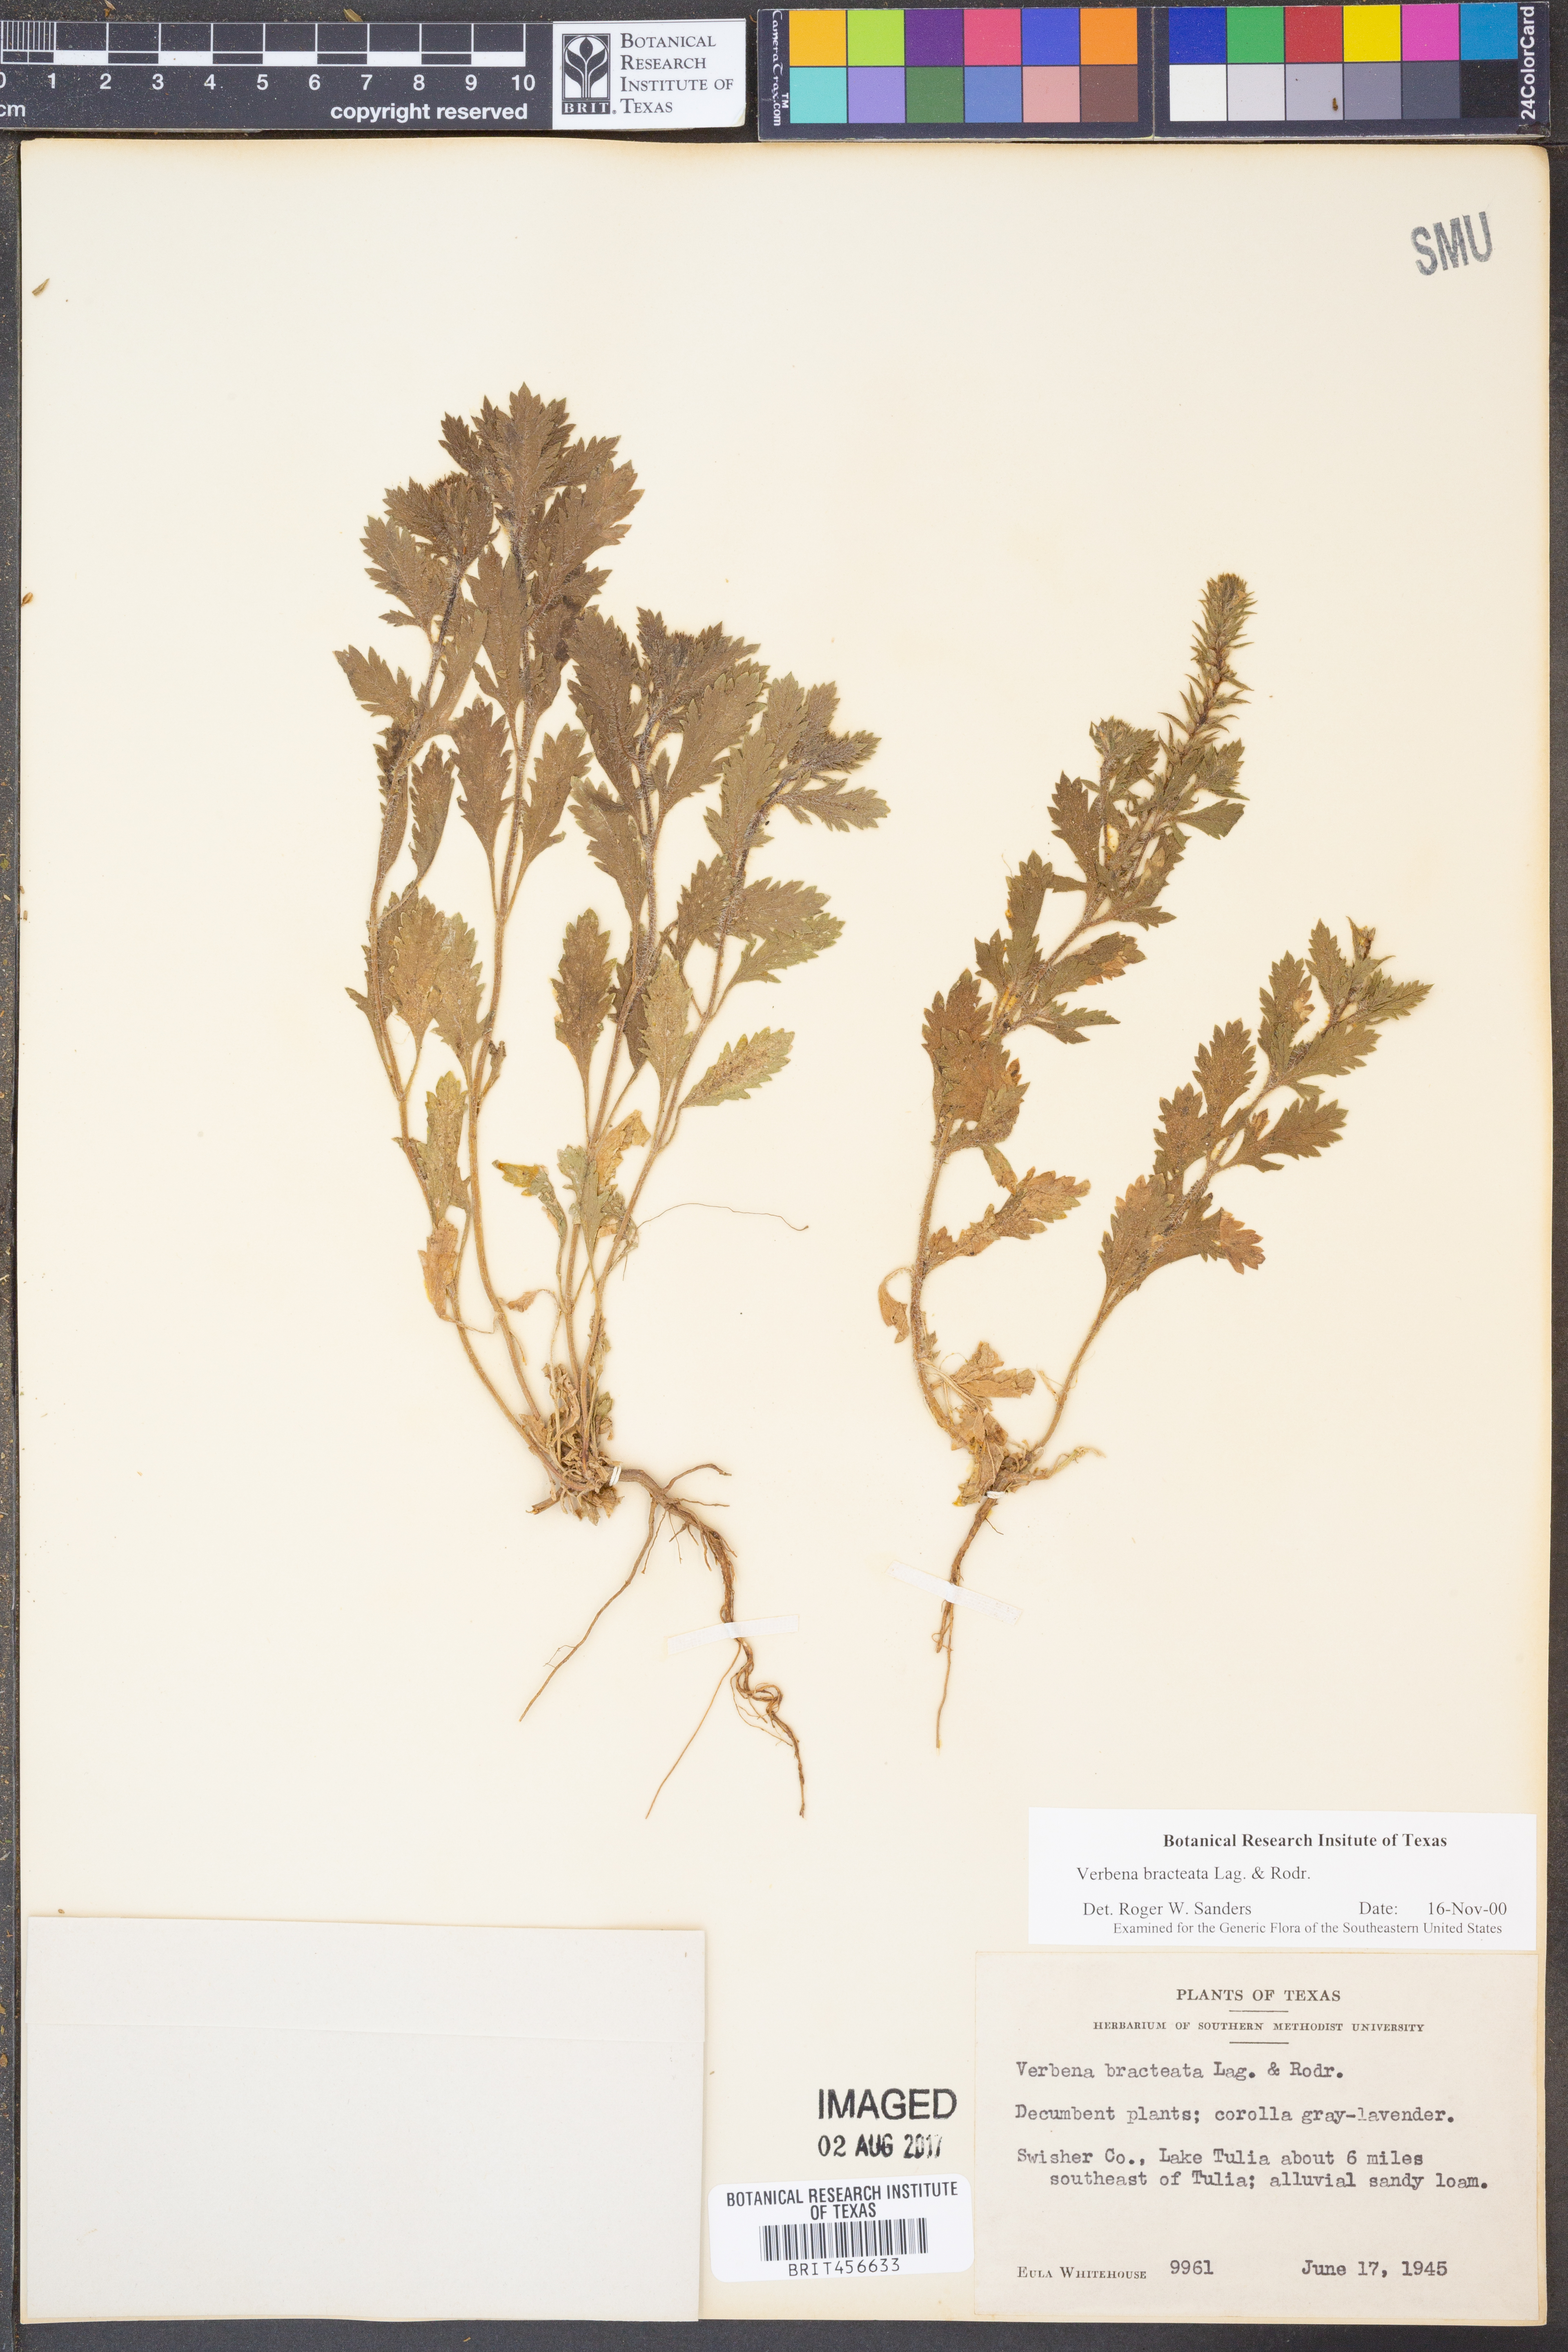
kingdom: Plantae
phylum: Tracheophyta
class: Magnoliopsida
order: Lamiales
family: Verbenaceae
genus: Verbena
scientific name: Verbena bracteata
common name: Bracted vervain
